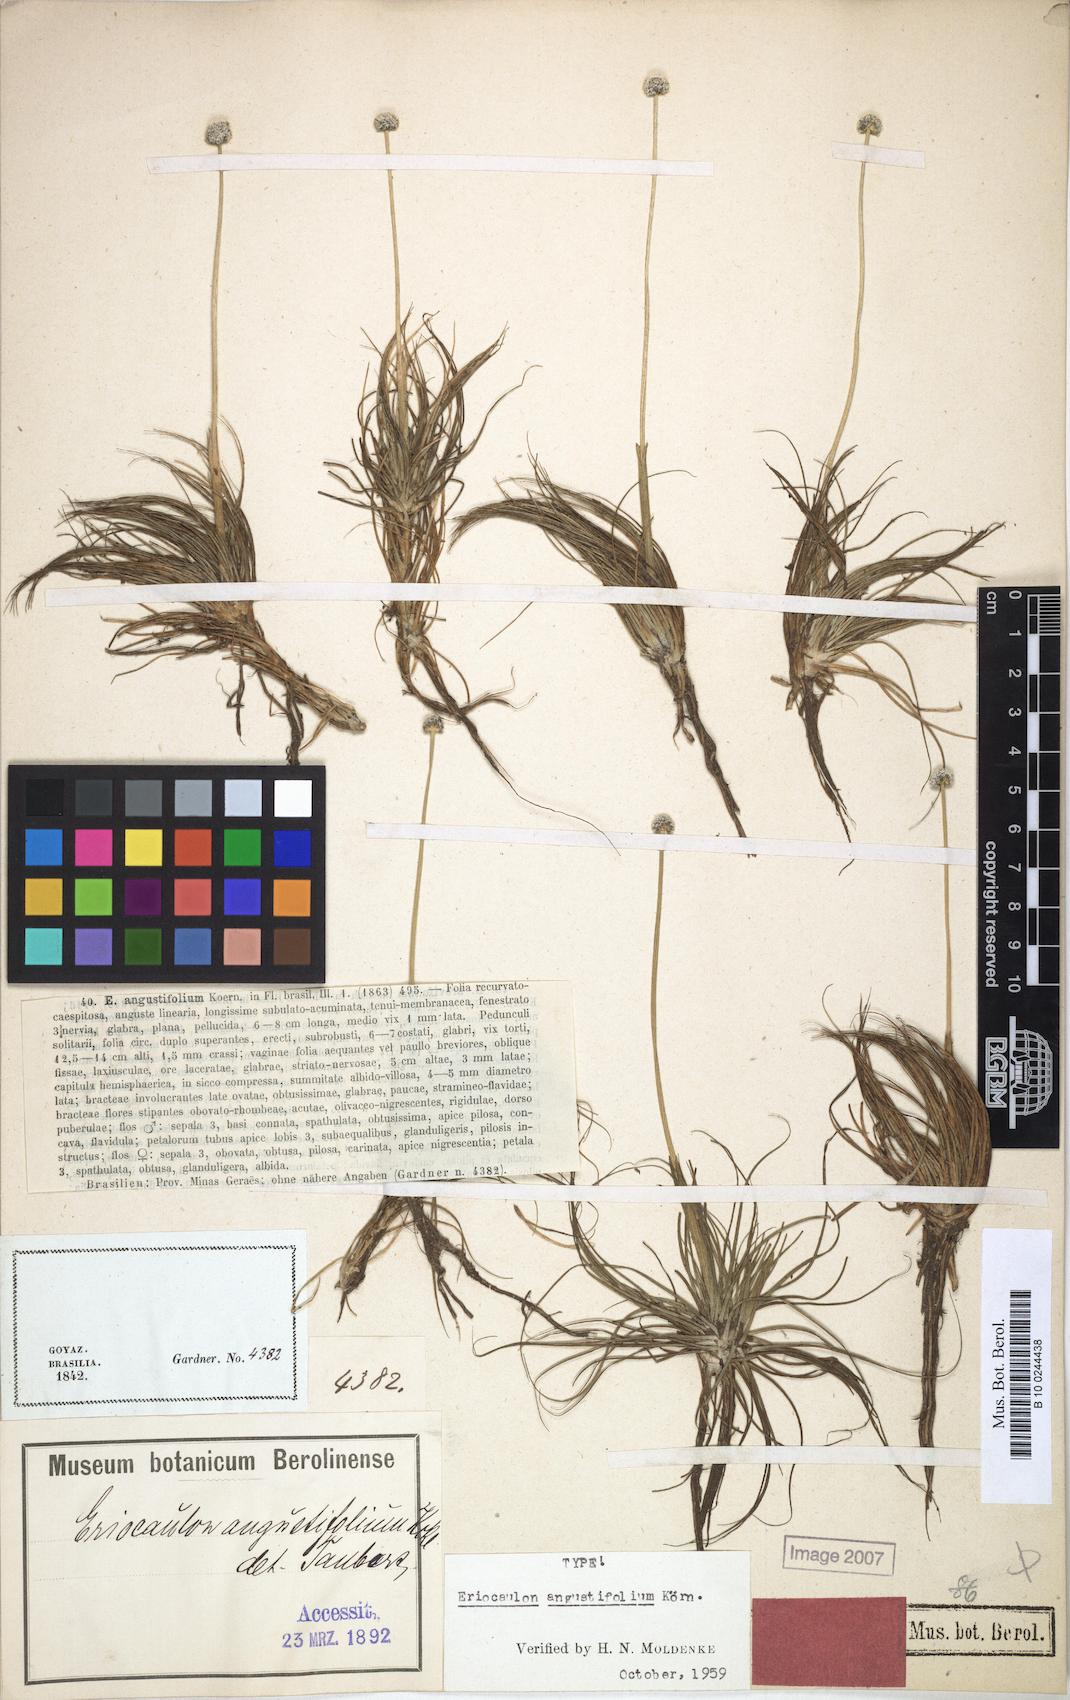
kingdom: Plantae
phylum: Tracheophyta
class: Liliopsida
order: Poales
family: Eriocaulaceae
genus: Eriocaulon
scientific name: Eriocaulon angustifolium
